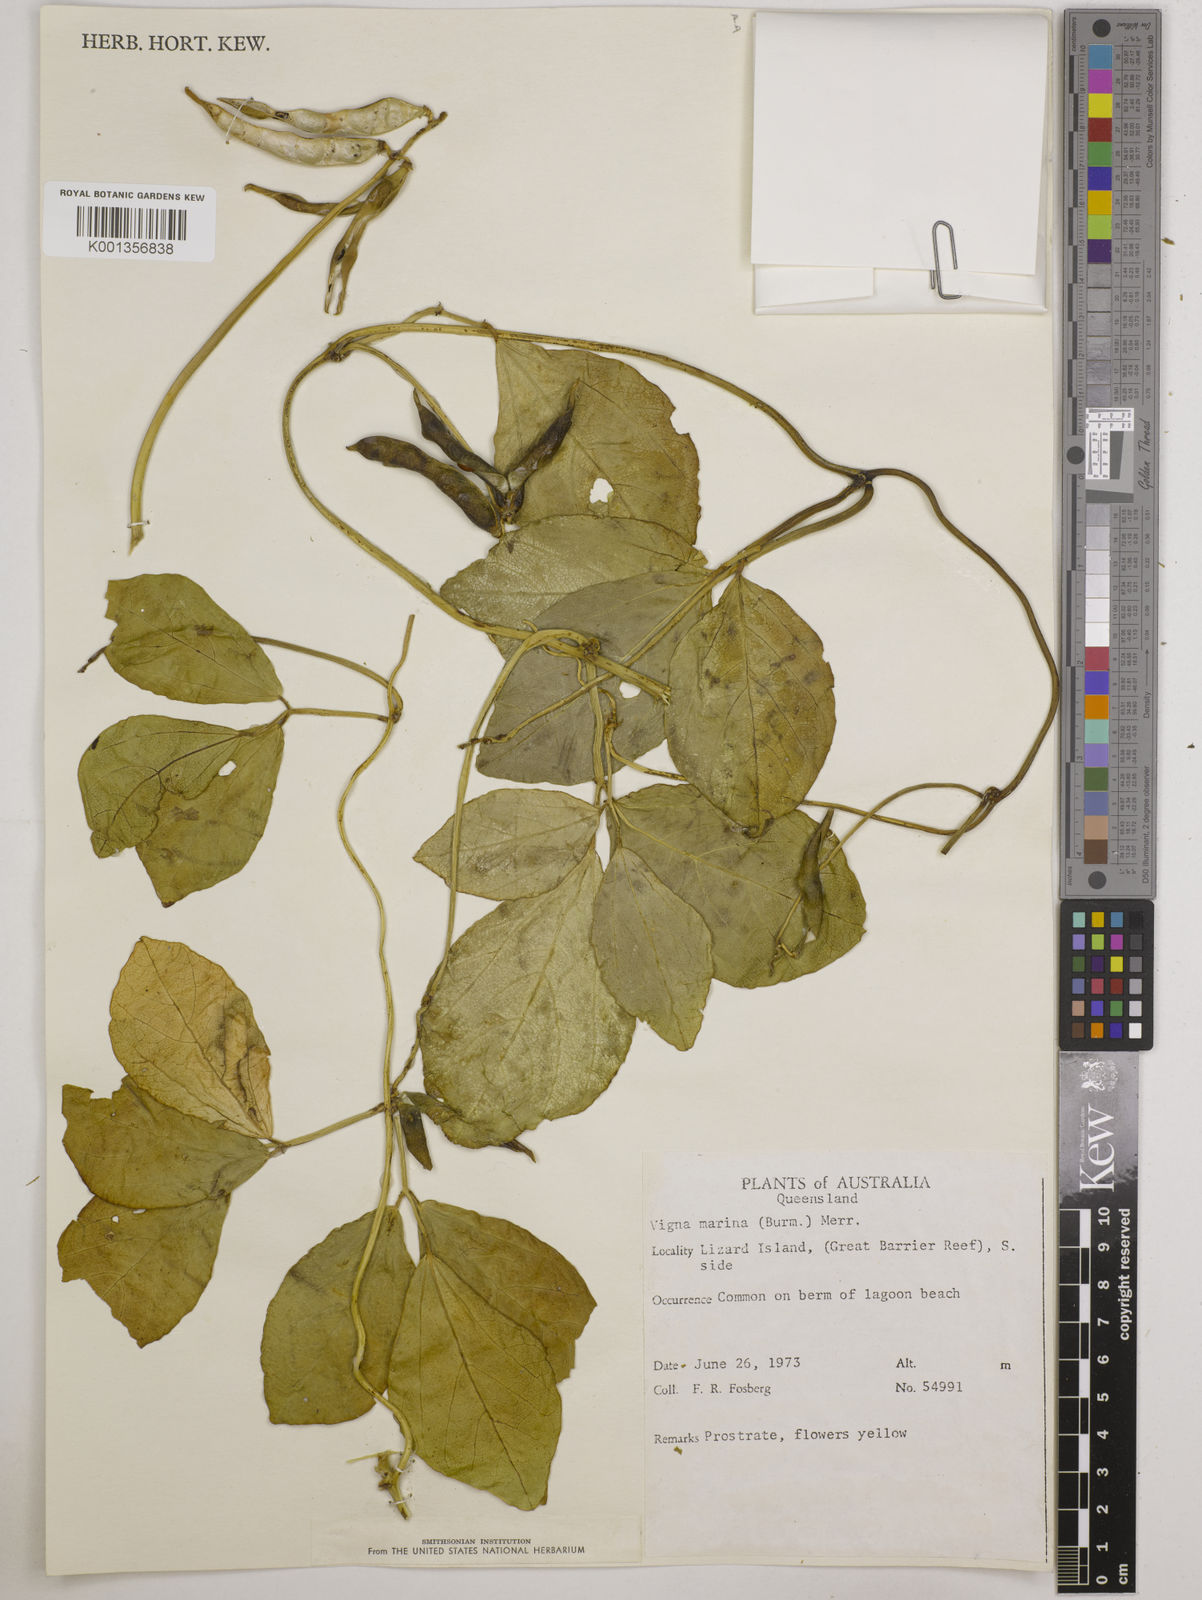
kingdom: Plantae
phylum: Tracheophyta
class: Magnoliopsida
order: Fabales
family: Fabaceae
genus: Vigna
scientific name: Vigna marina
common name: Dune-bean
